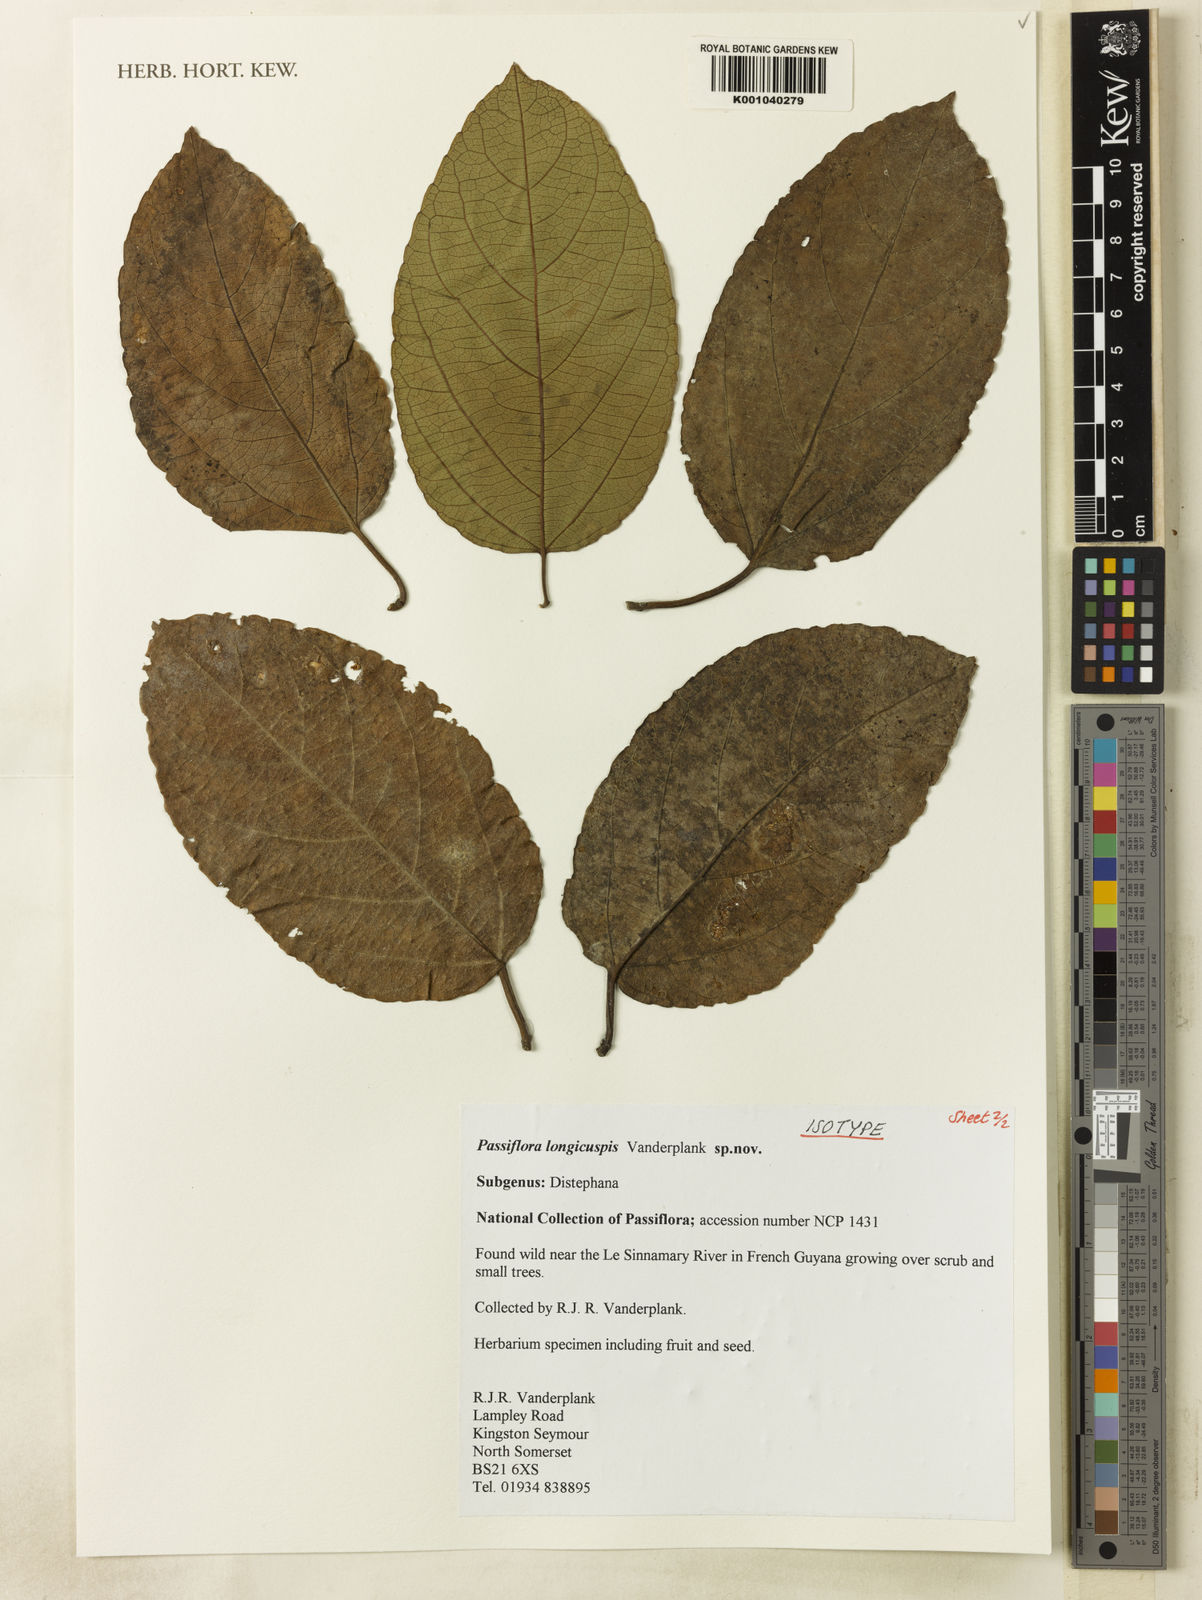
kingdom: Plantae
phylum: Tracheophyta
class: Magnoliopsida
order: Malpighiales
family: Passifloraceae
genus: Passiflora
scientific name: Passiflora longicuspis
